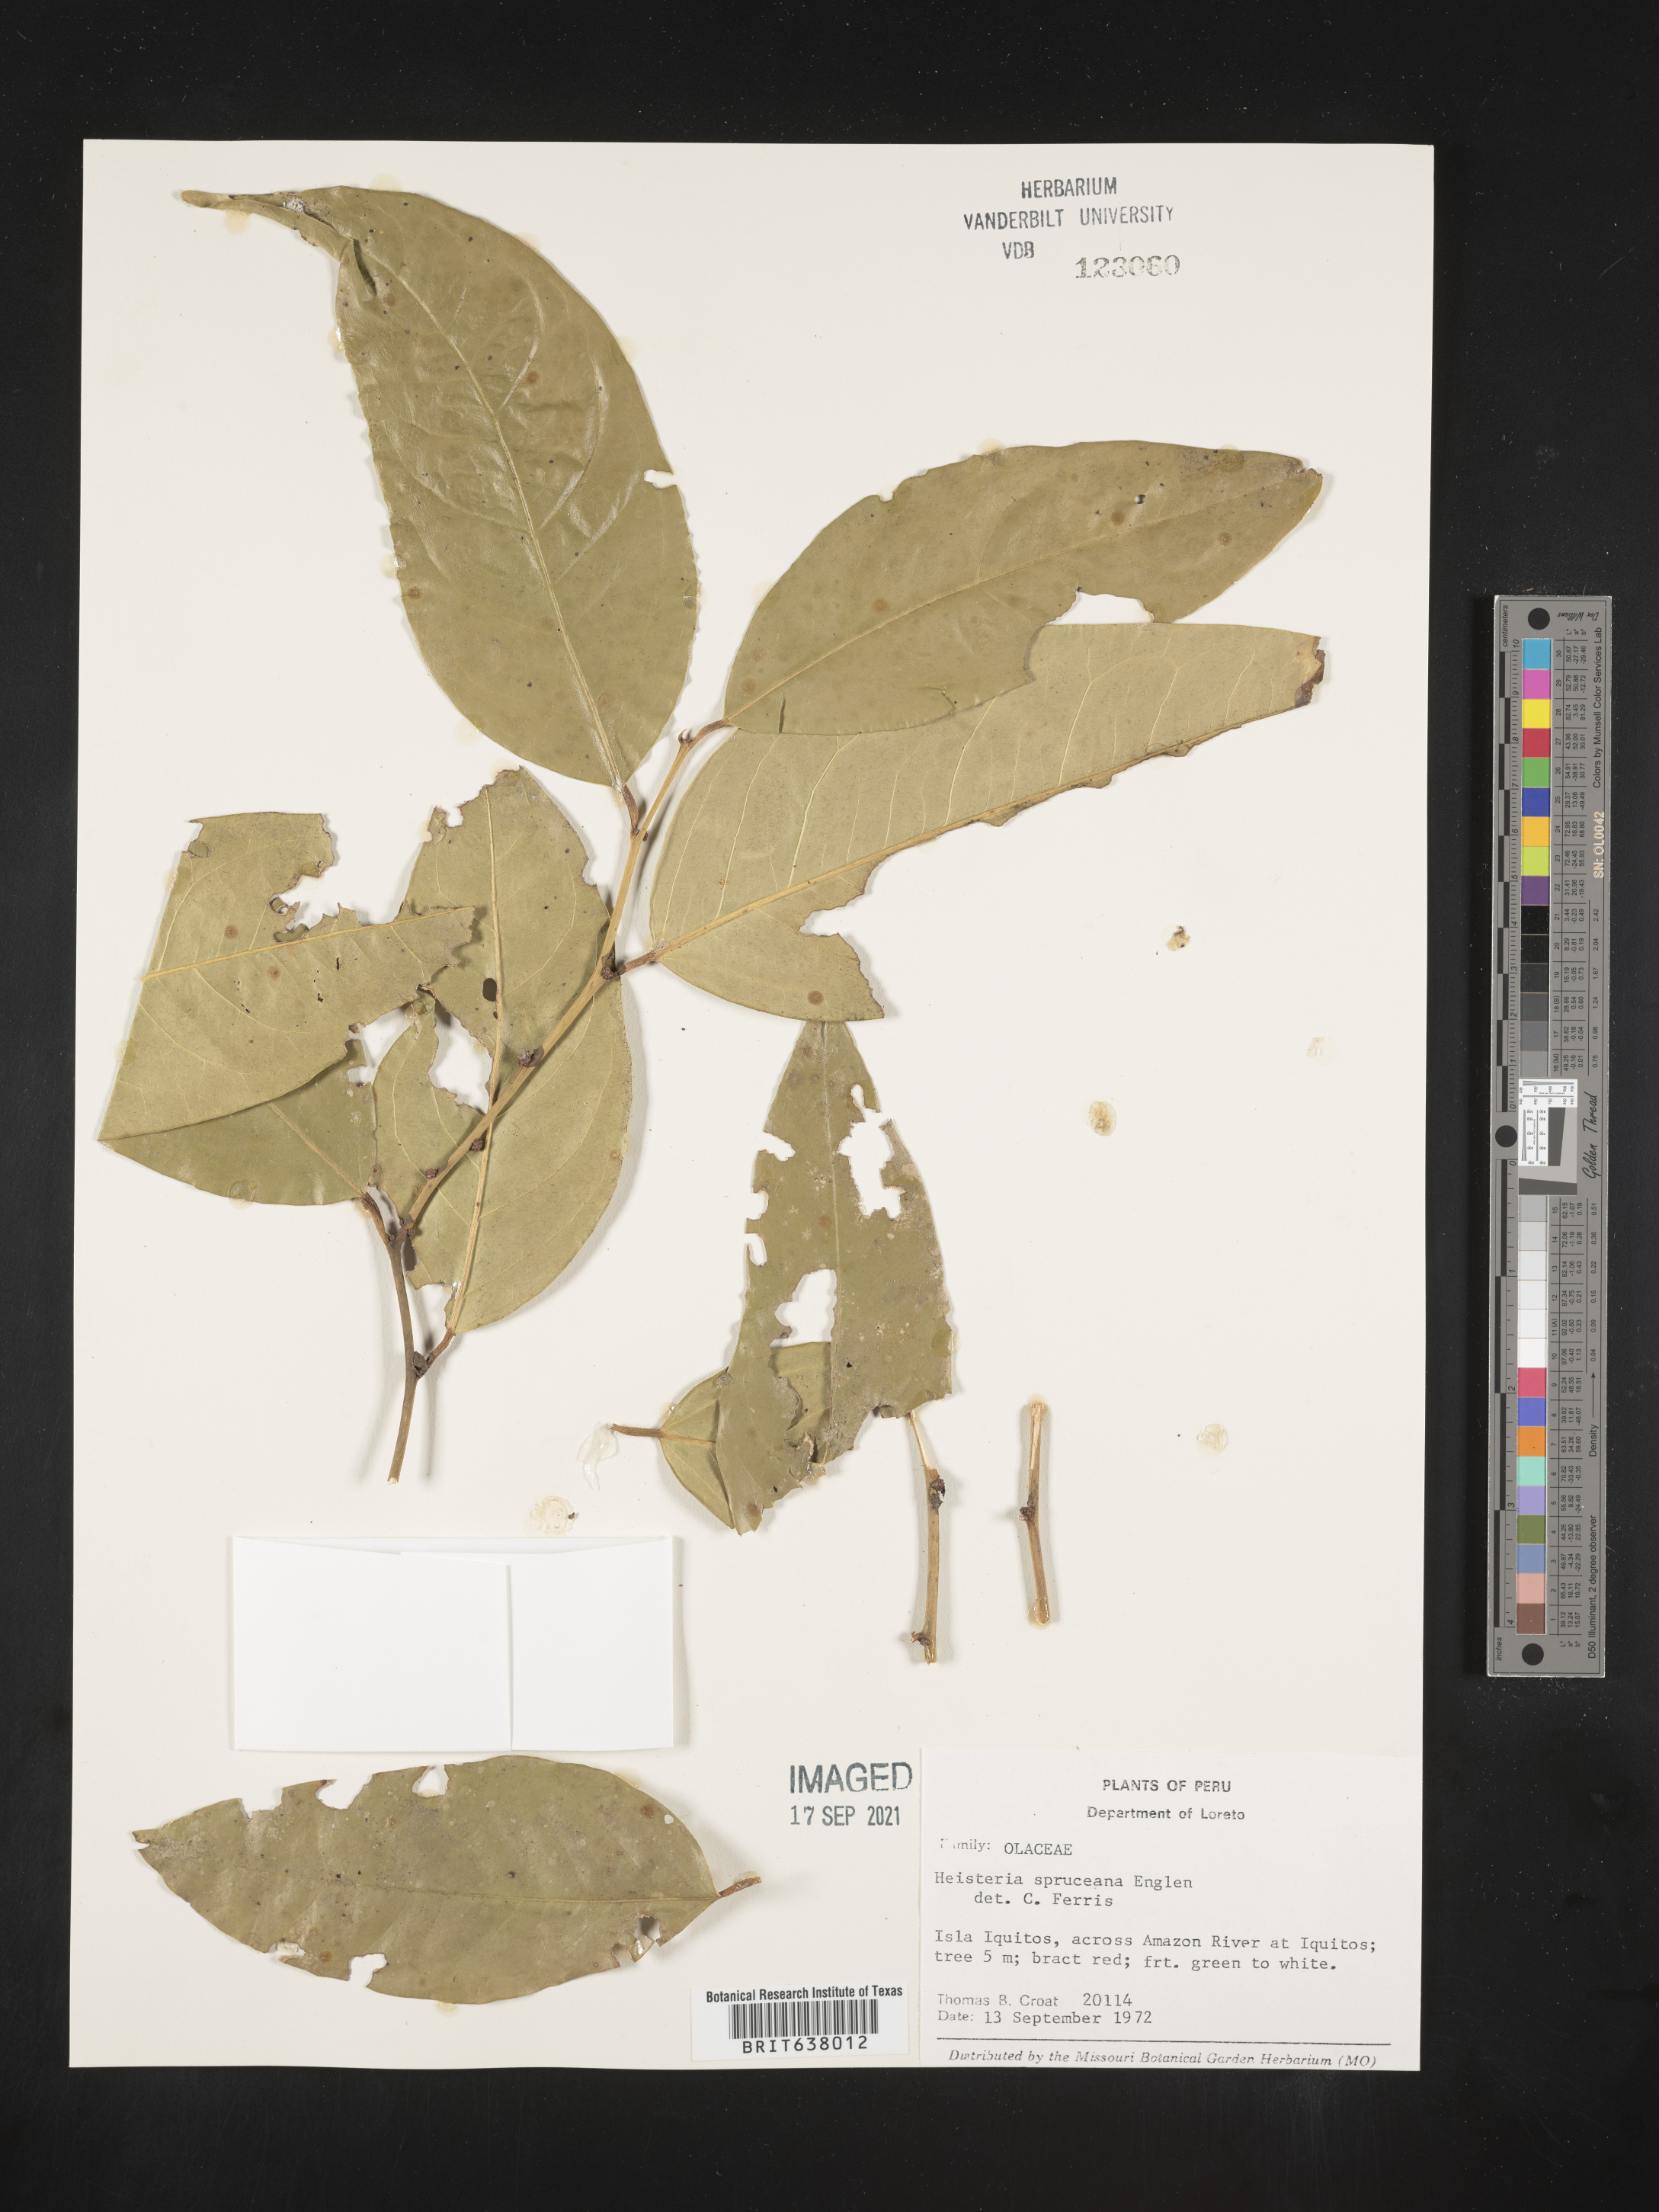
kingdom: Plantae
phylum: Tracheophyta
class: Magnoliopsida
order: Santalales
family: Erythropalaceae
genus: Heisteria
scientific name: Heisteria
